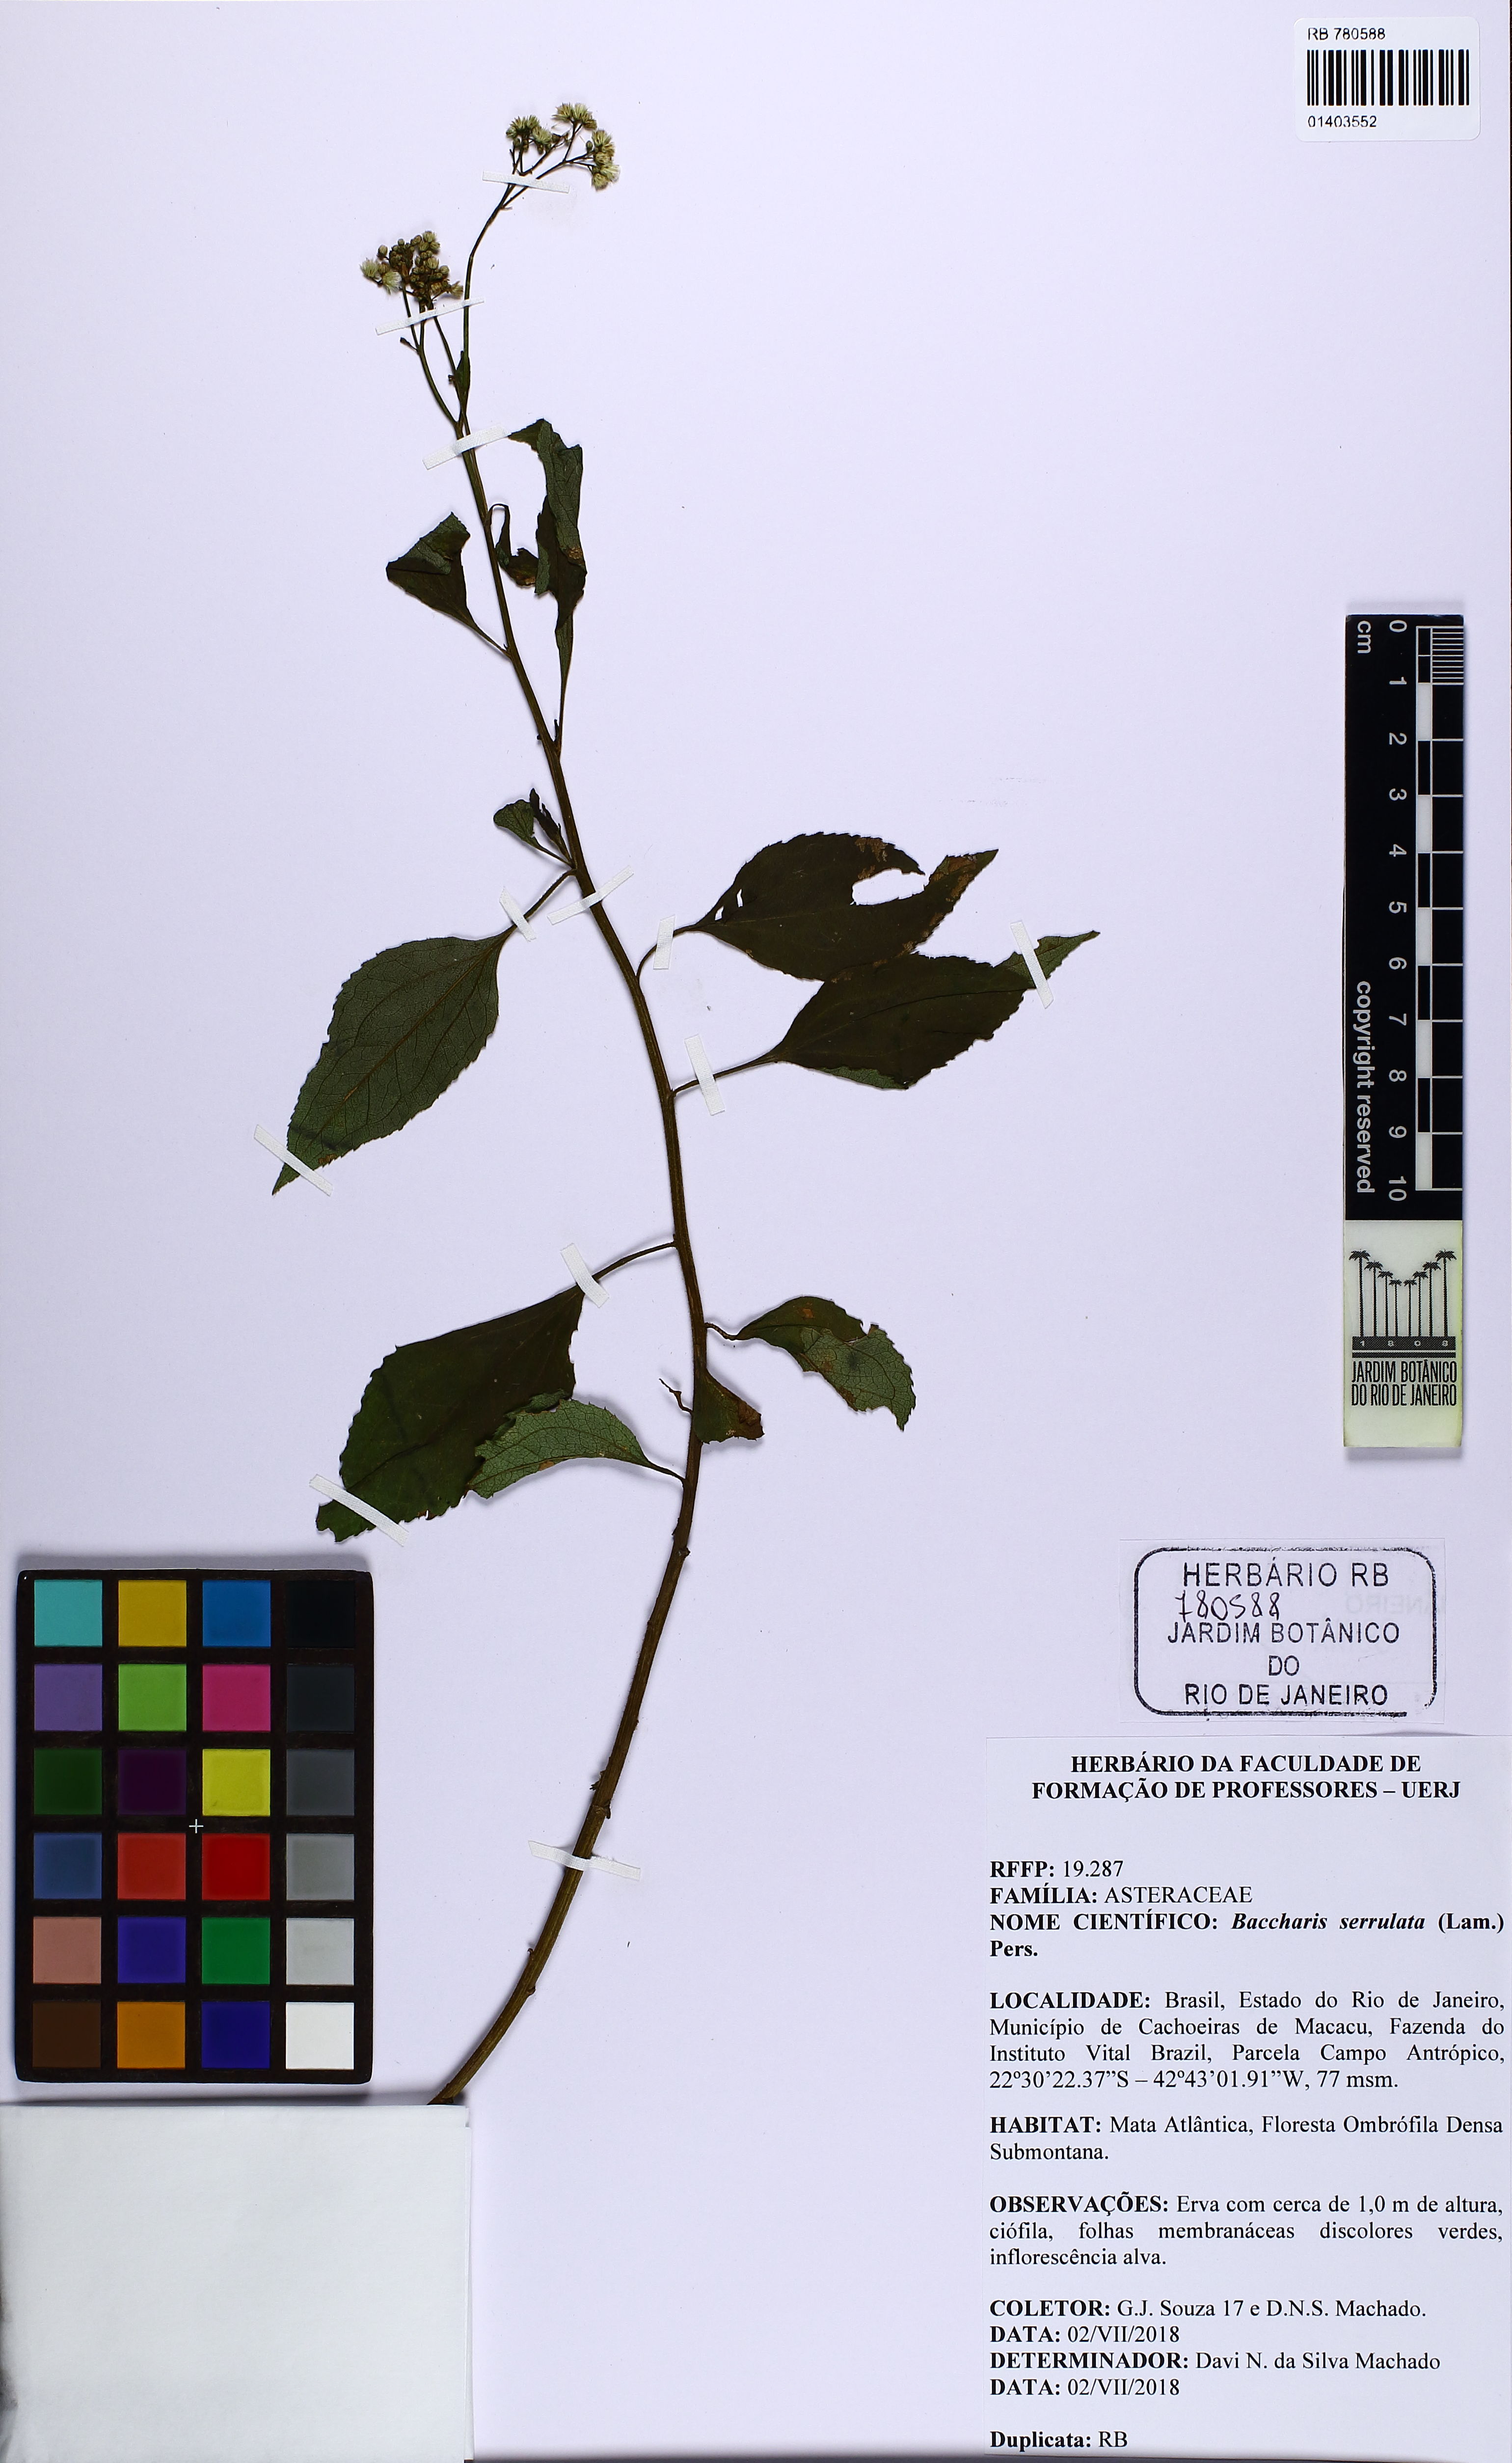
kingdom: Plantae
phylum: Tracheophyta
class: Magnoliopsida
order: Asterales
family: Asteraceae
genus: Baccharis
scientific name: Baccharis serrulata
